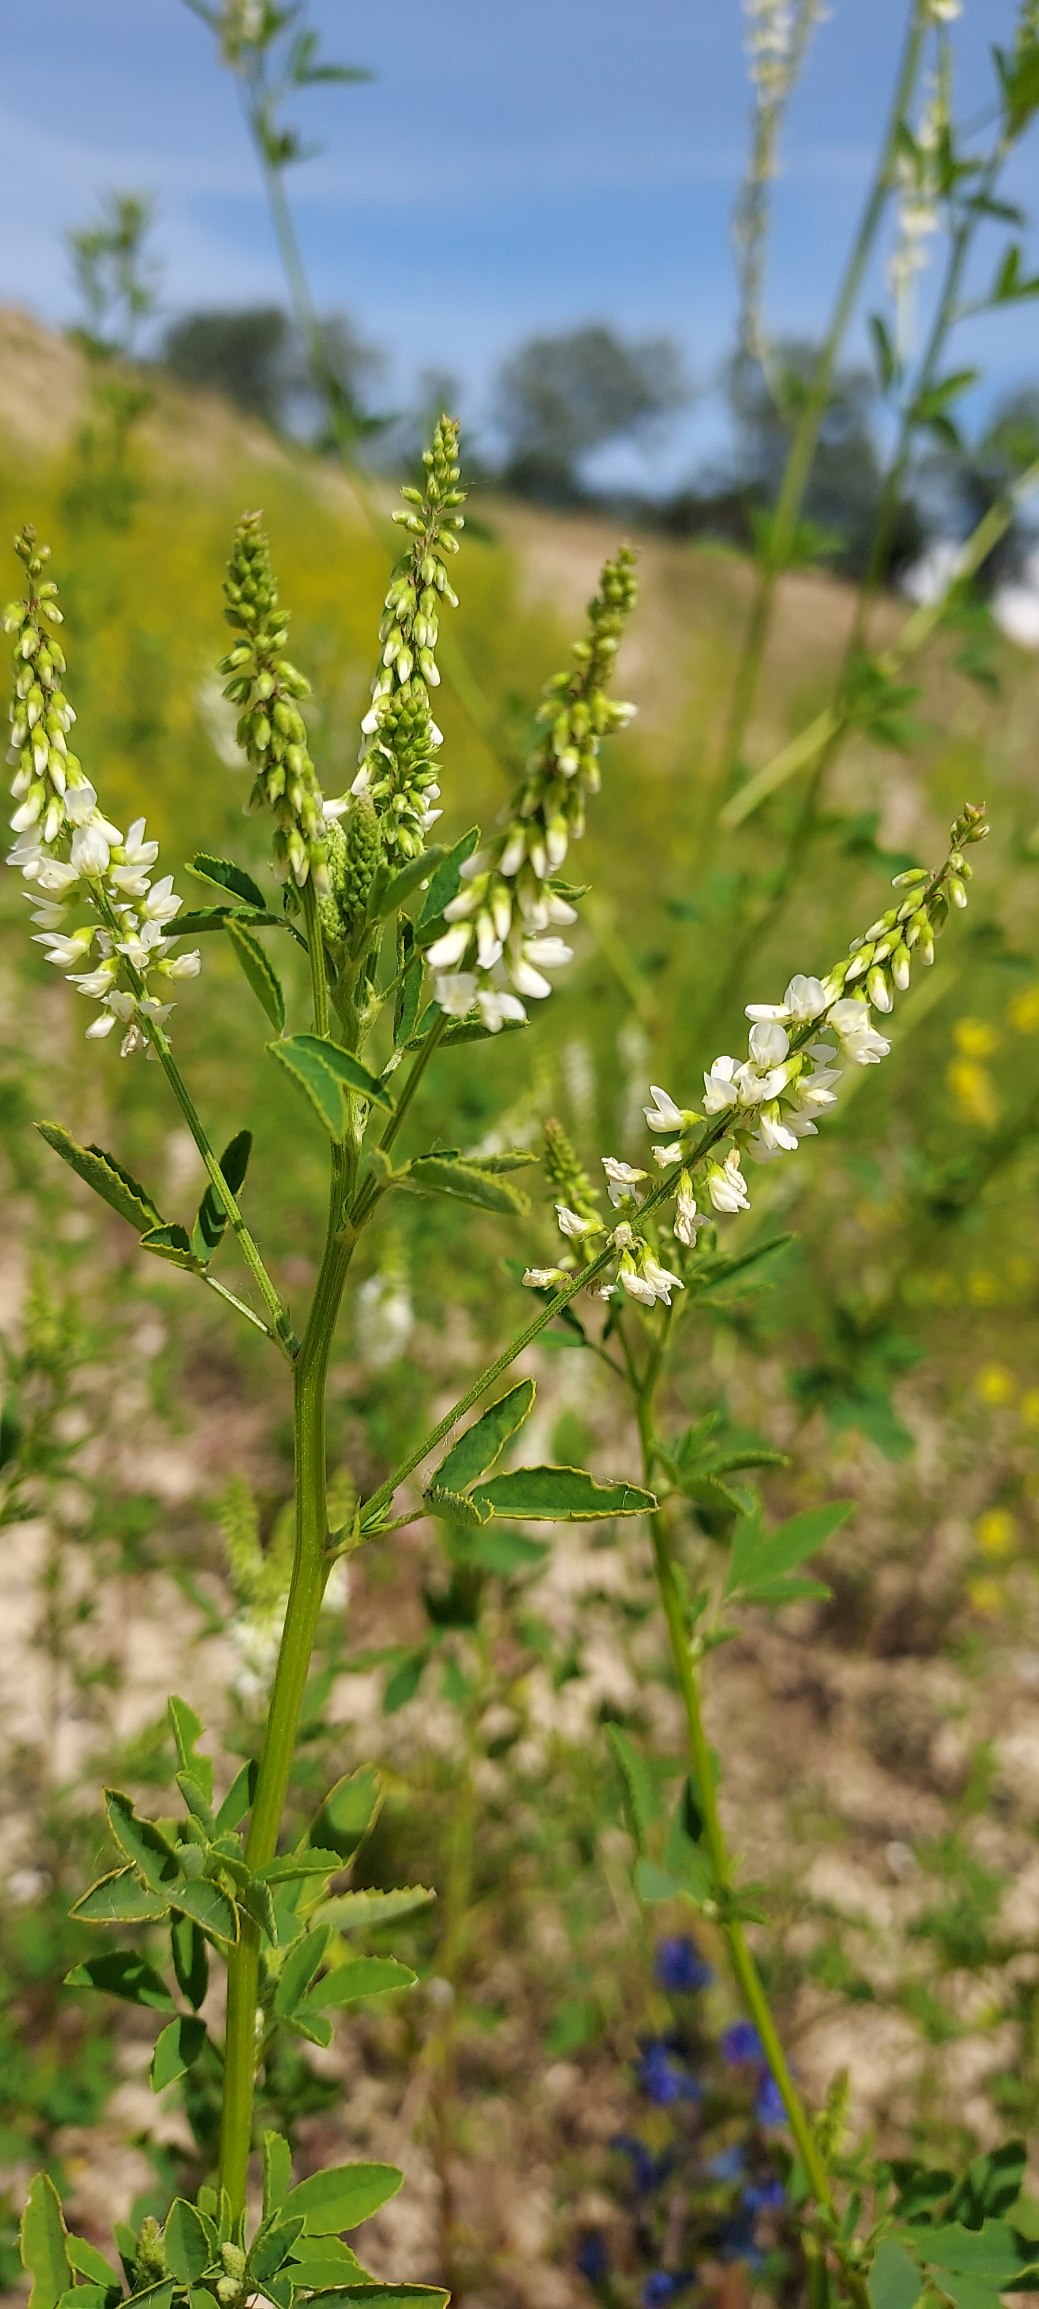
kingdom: Plantae
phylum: Tracheophyta
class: Magnoliopsida
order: Fabales
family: Fabaceae
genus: Melilotus
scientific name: Melilotus albus
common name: Hvid stenkløver
